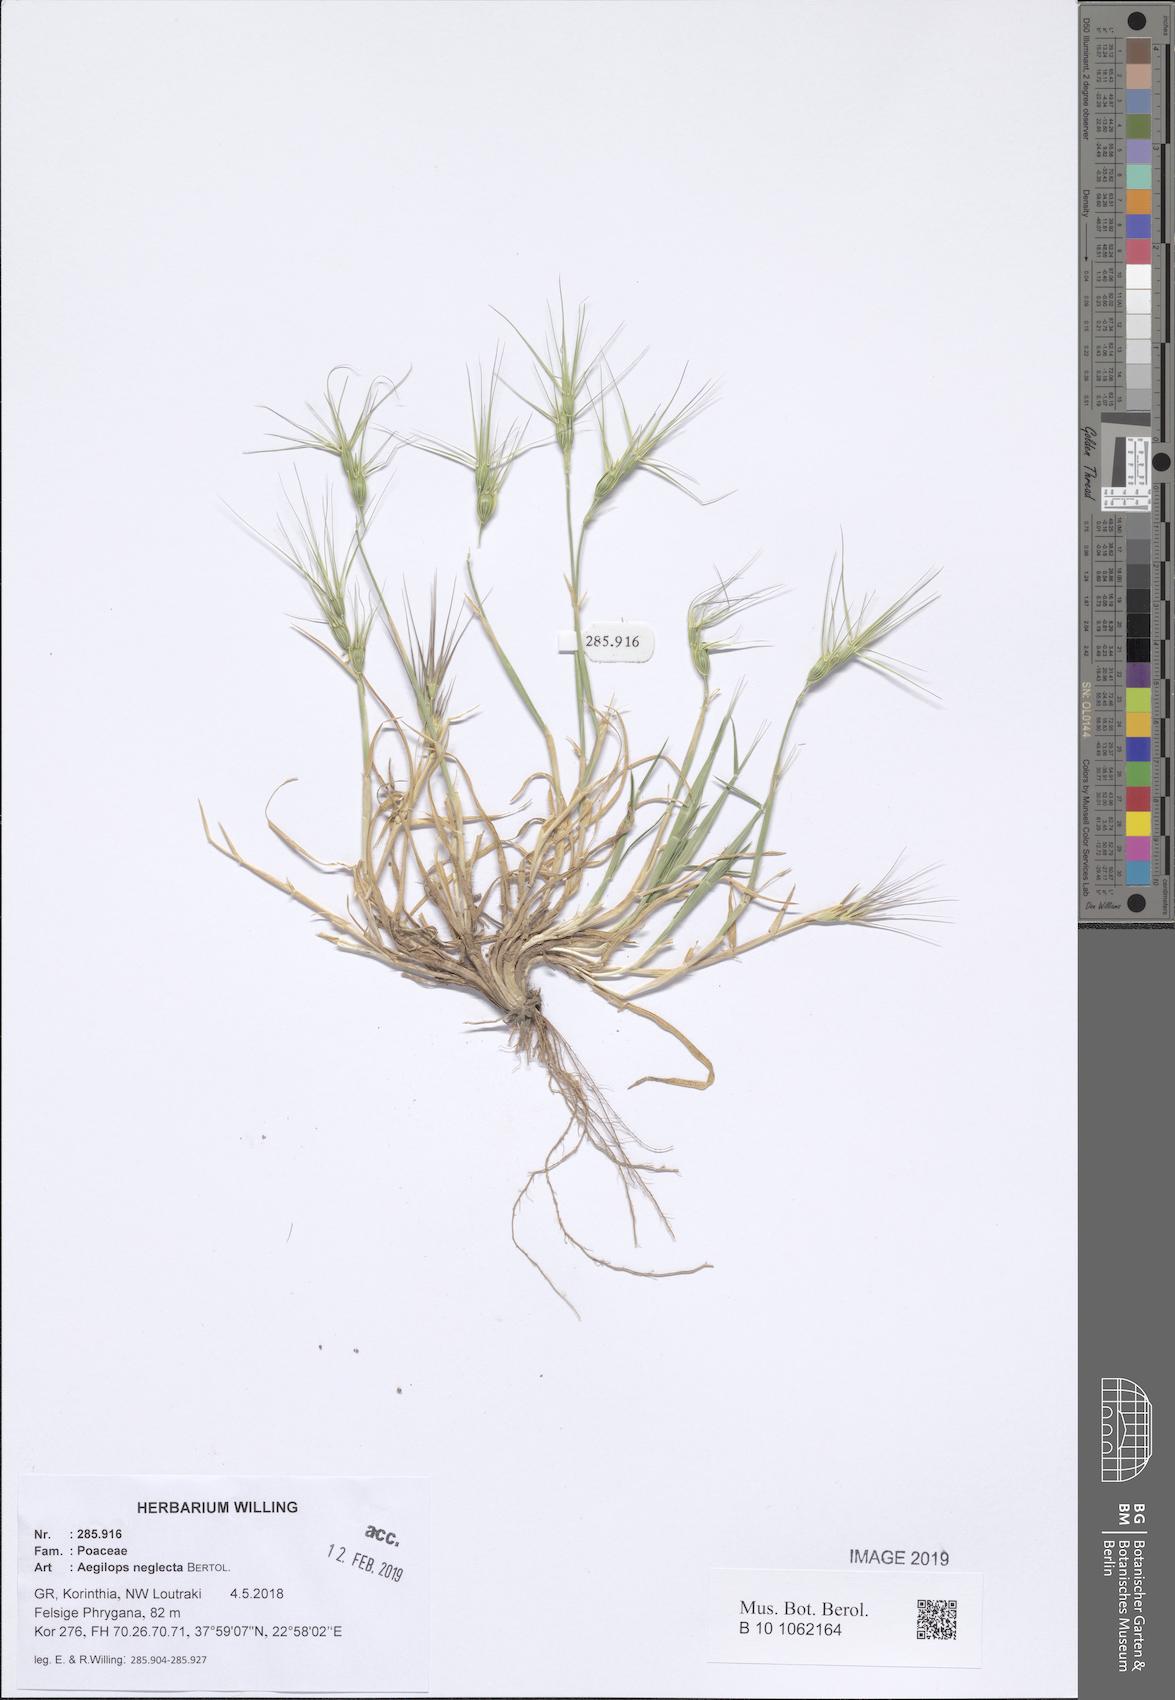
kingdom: Plantae
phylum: Tracheophyta
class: Liliopsida
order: Poales
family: Poaceae
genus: Aegilops
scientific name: Aegilops neglecta
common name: Three-awn goat grass
